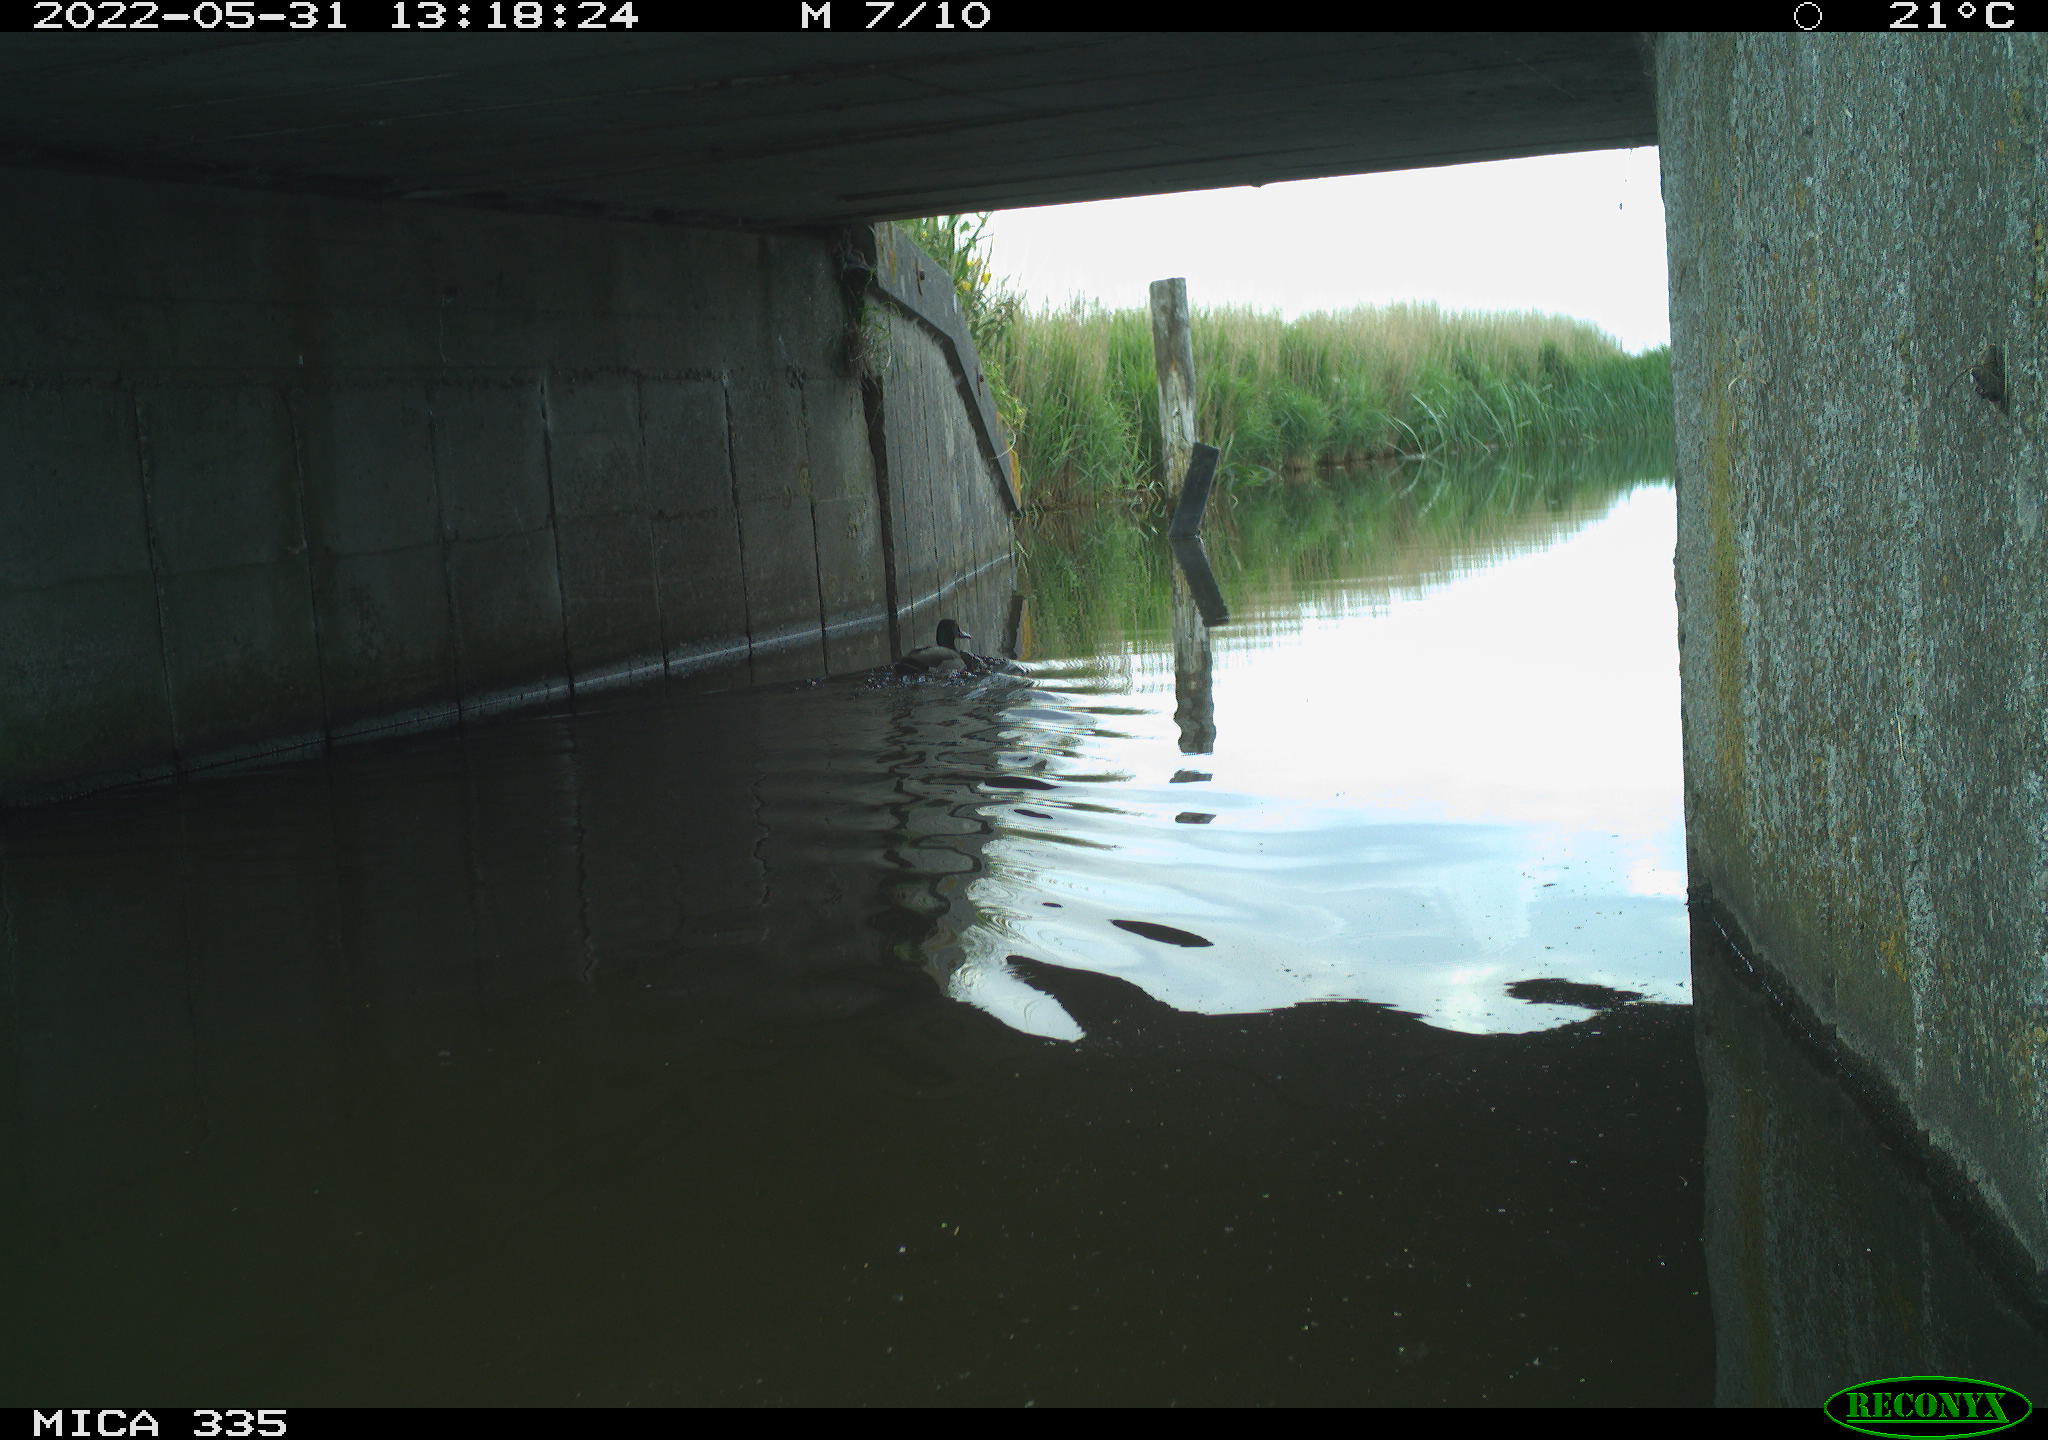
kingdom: Animalia
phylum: Chordata
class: Aves
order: Anseriformes
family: Anatidae
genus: Anas
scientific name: Anas platyrhynchos
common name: Mallard
